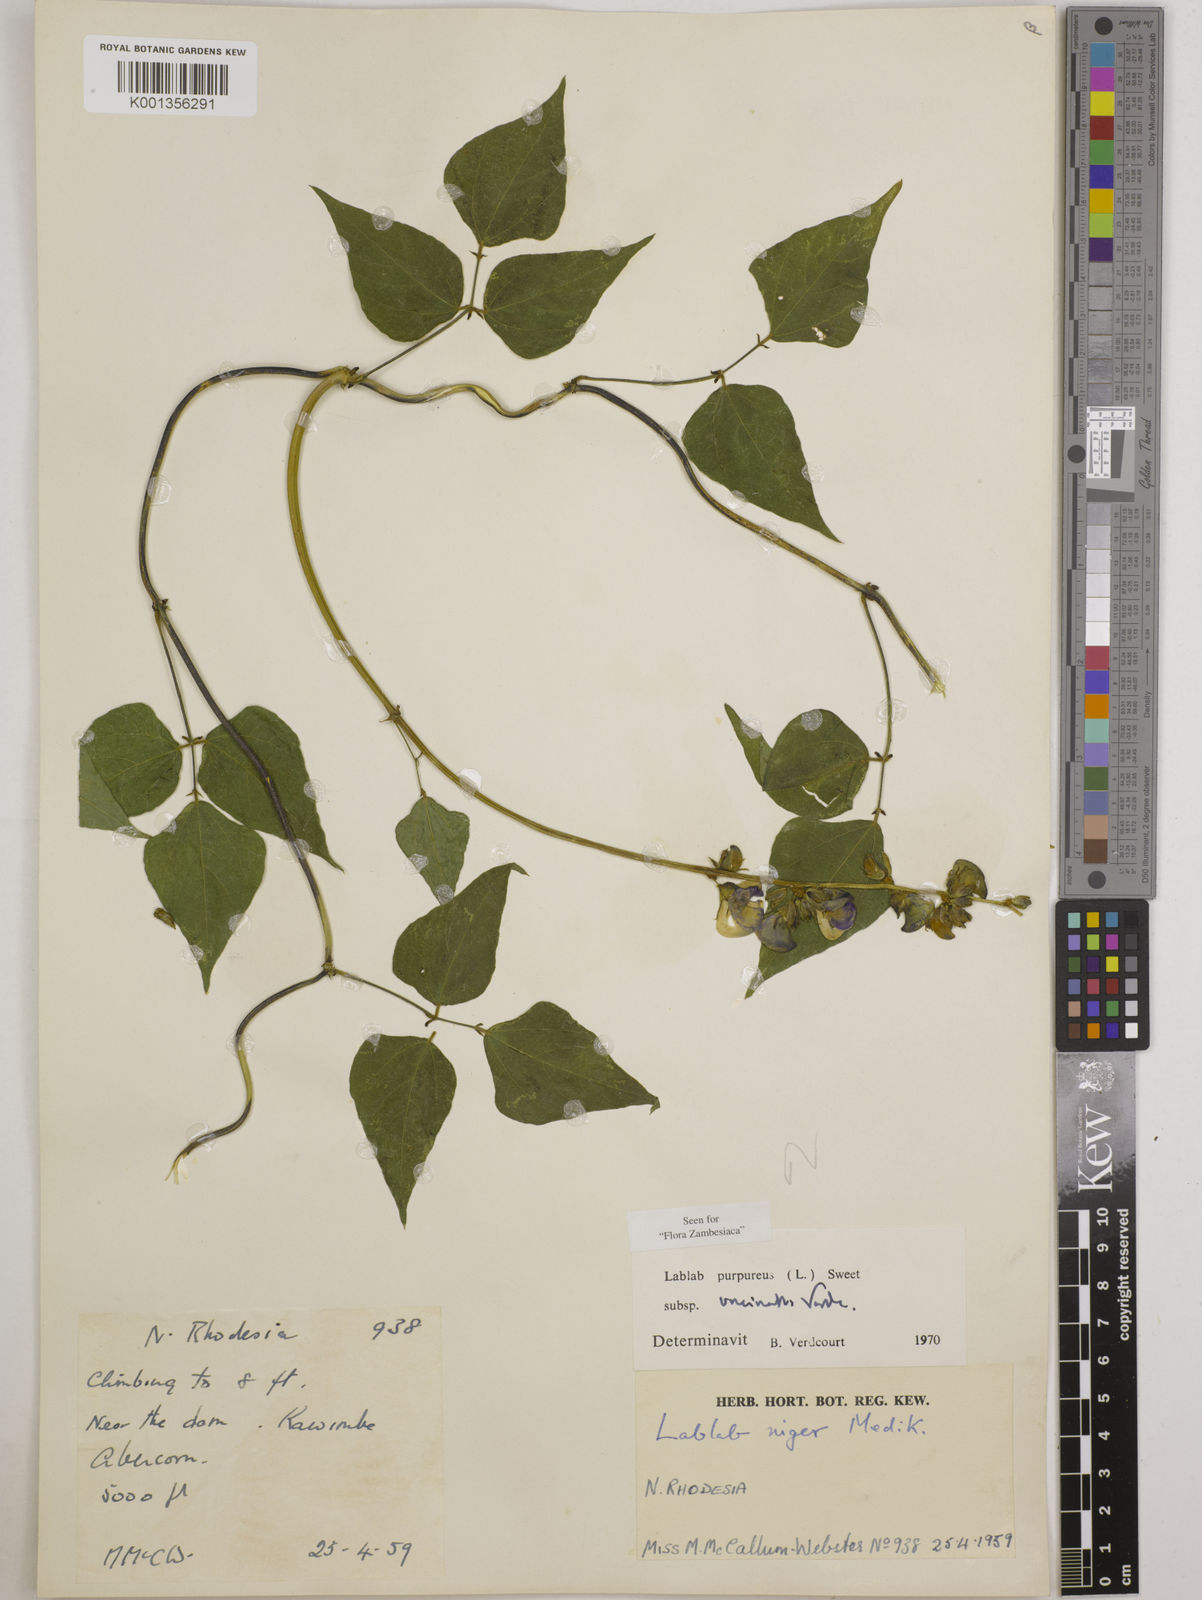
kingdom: Plantae
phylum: Tracheophyta
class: Magnoliopsida
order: Fabales
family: Fabaceae
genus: Lablab
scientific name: Lablab
